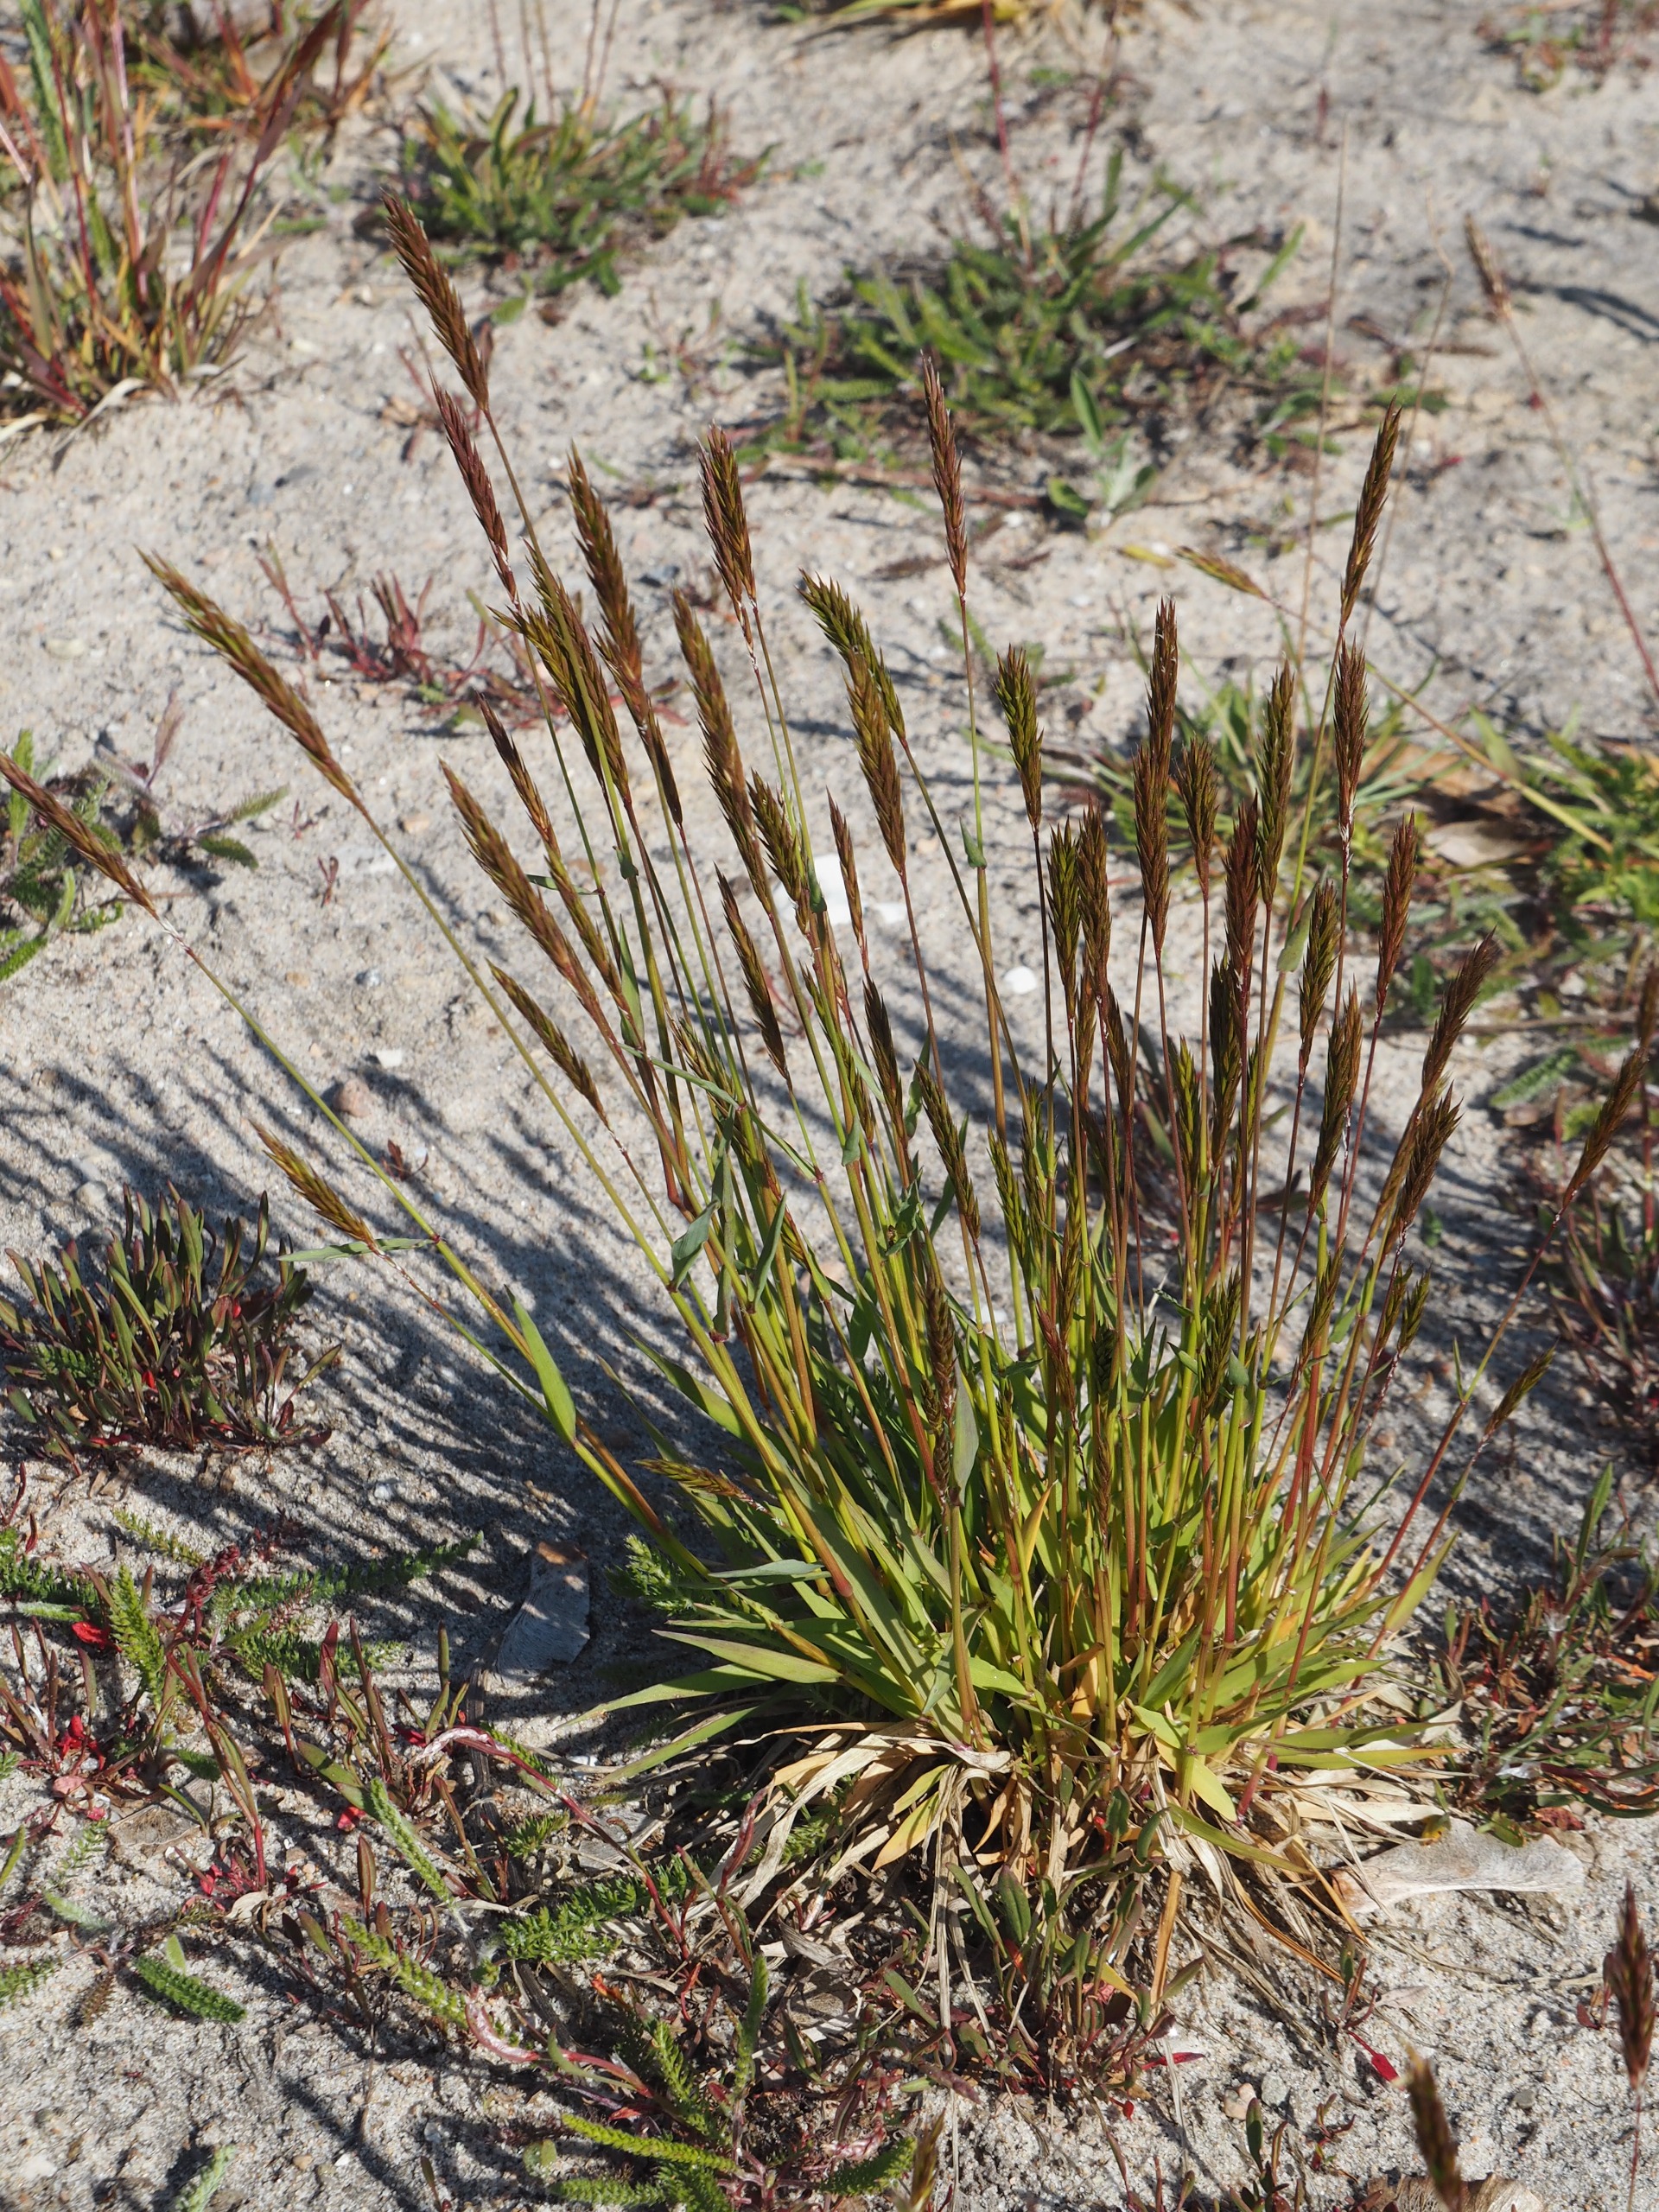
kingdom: Plantae
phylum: Tracheophyta
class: Liliopsida
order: Poales
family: Poaceae
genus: Anthoxanthum
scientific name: Anthoxanthum odoratum
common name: Vellugtende gulaks
